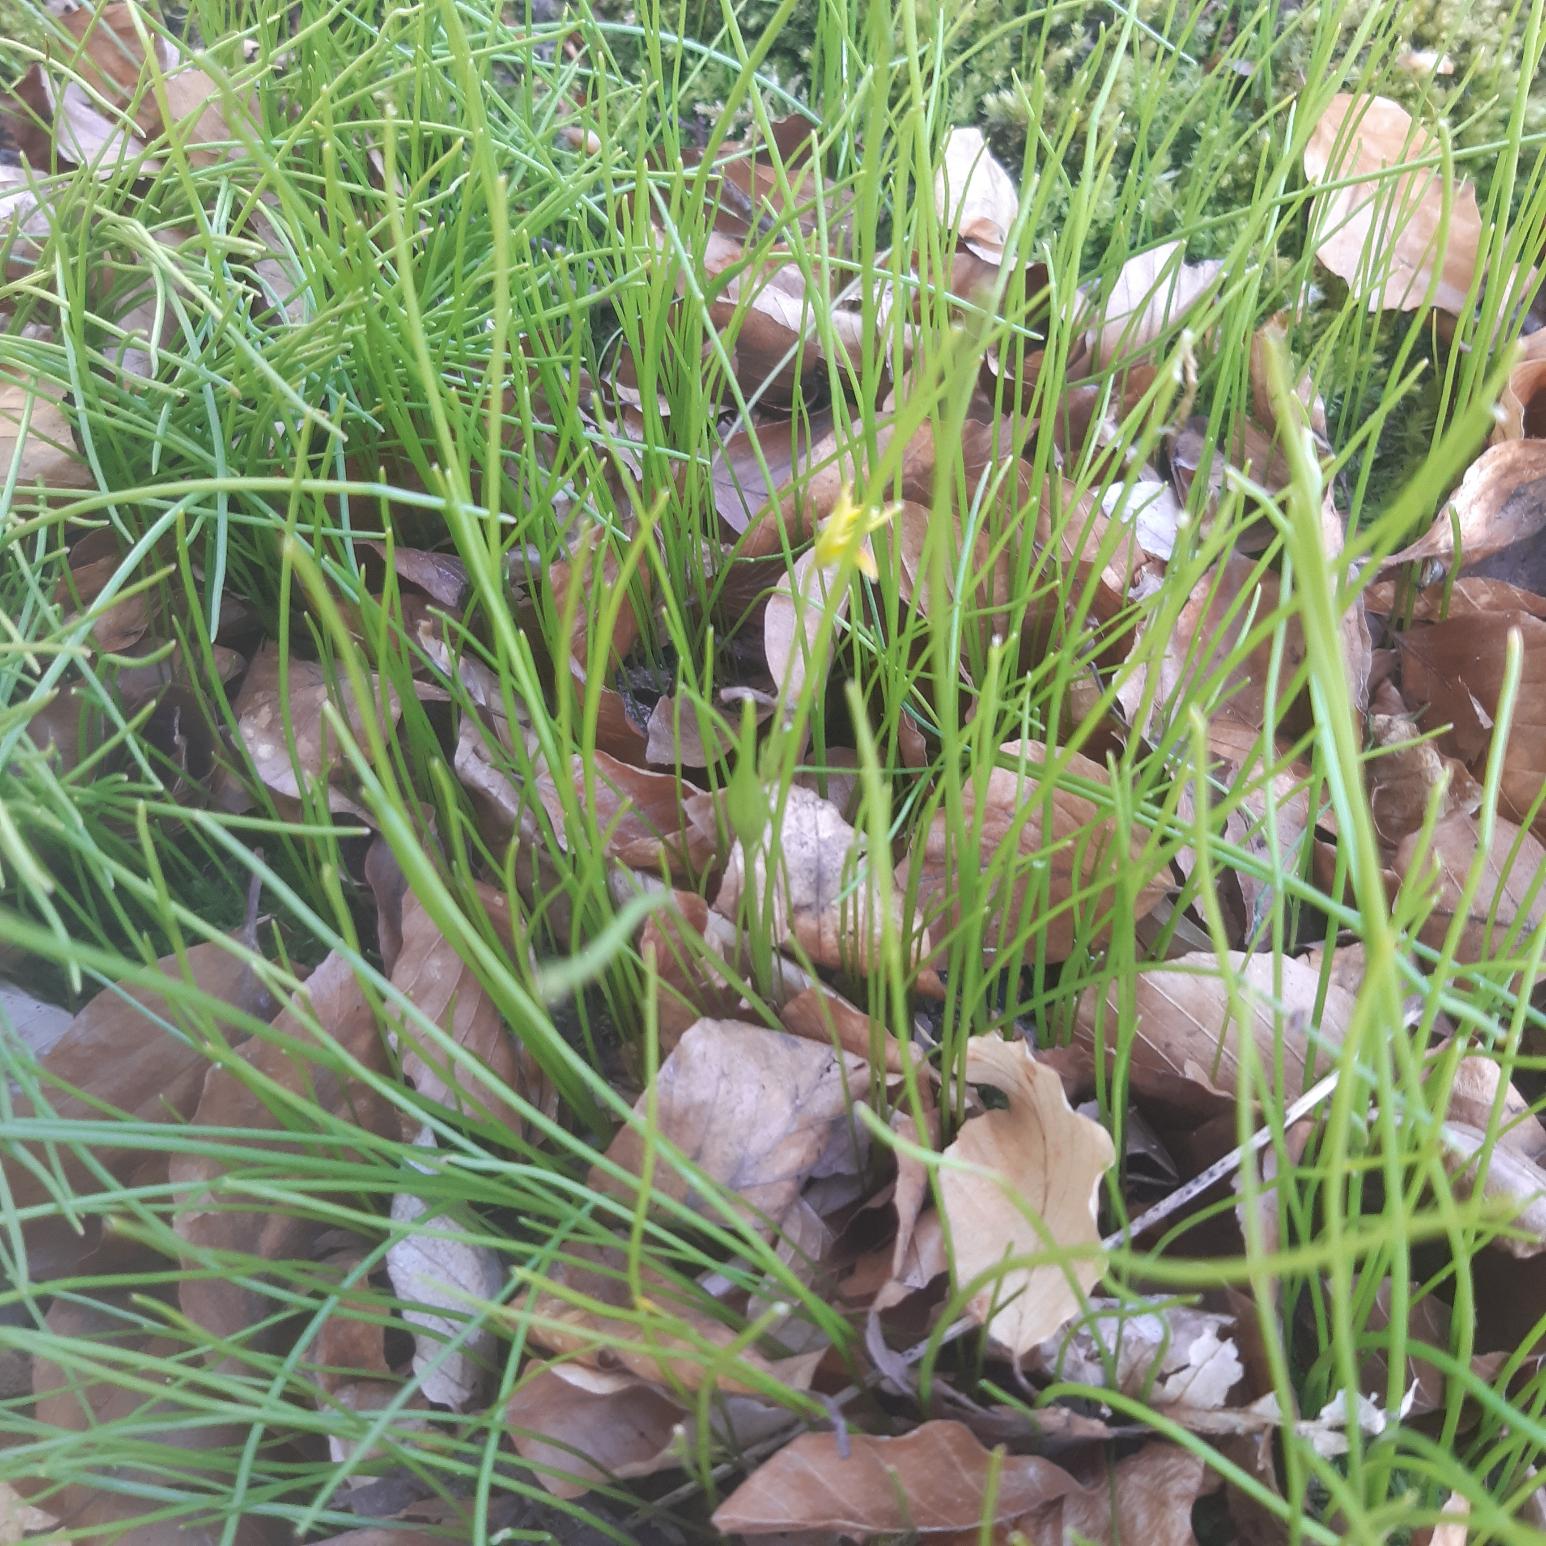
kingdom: Plantae
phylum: Tracheophyta
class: Liliopsida
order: Liliales
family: Liliaceae
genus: Gagea
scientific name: Gagea spathacea
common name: Hylster-guldstjerne
